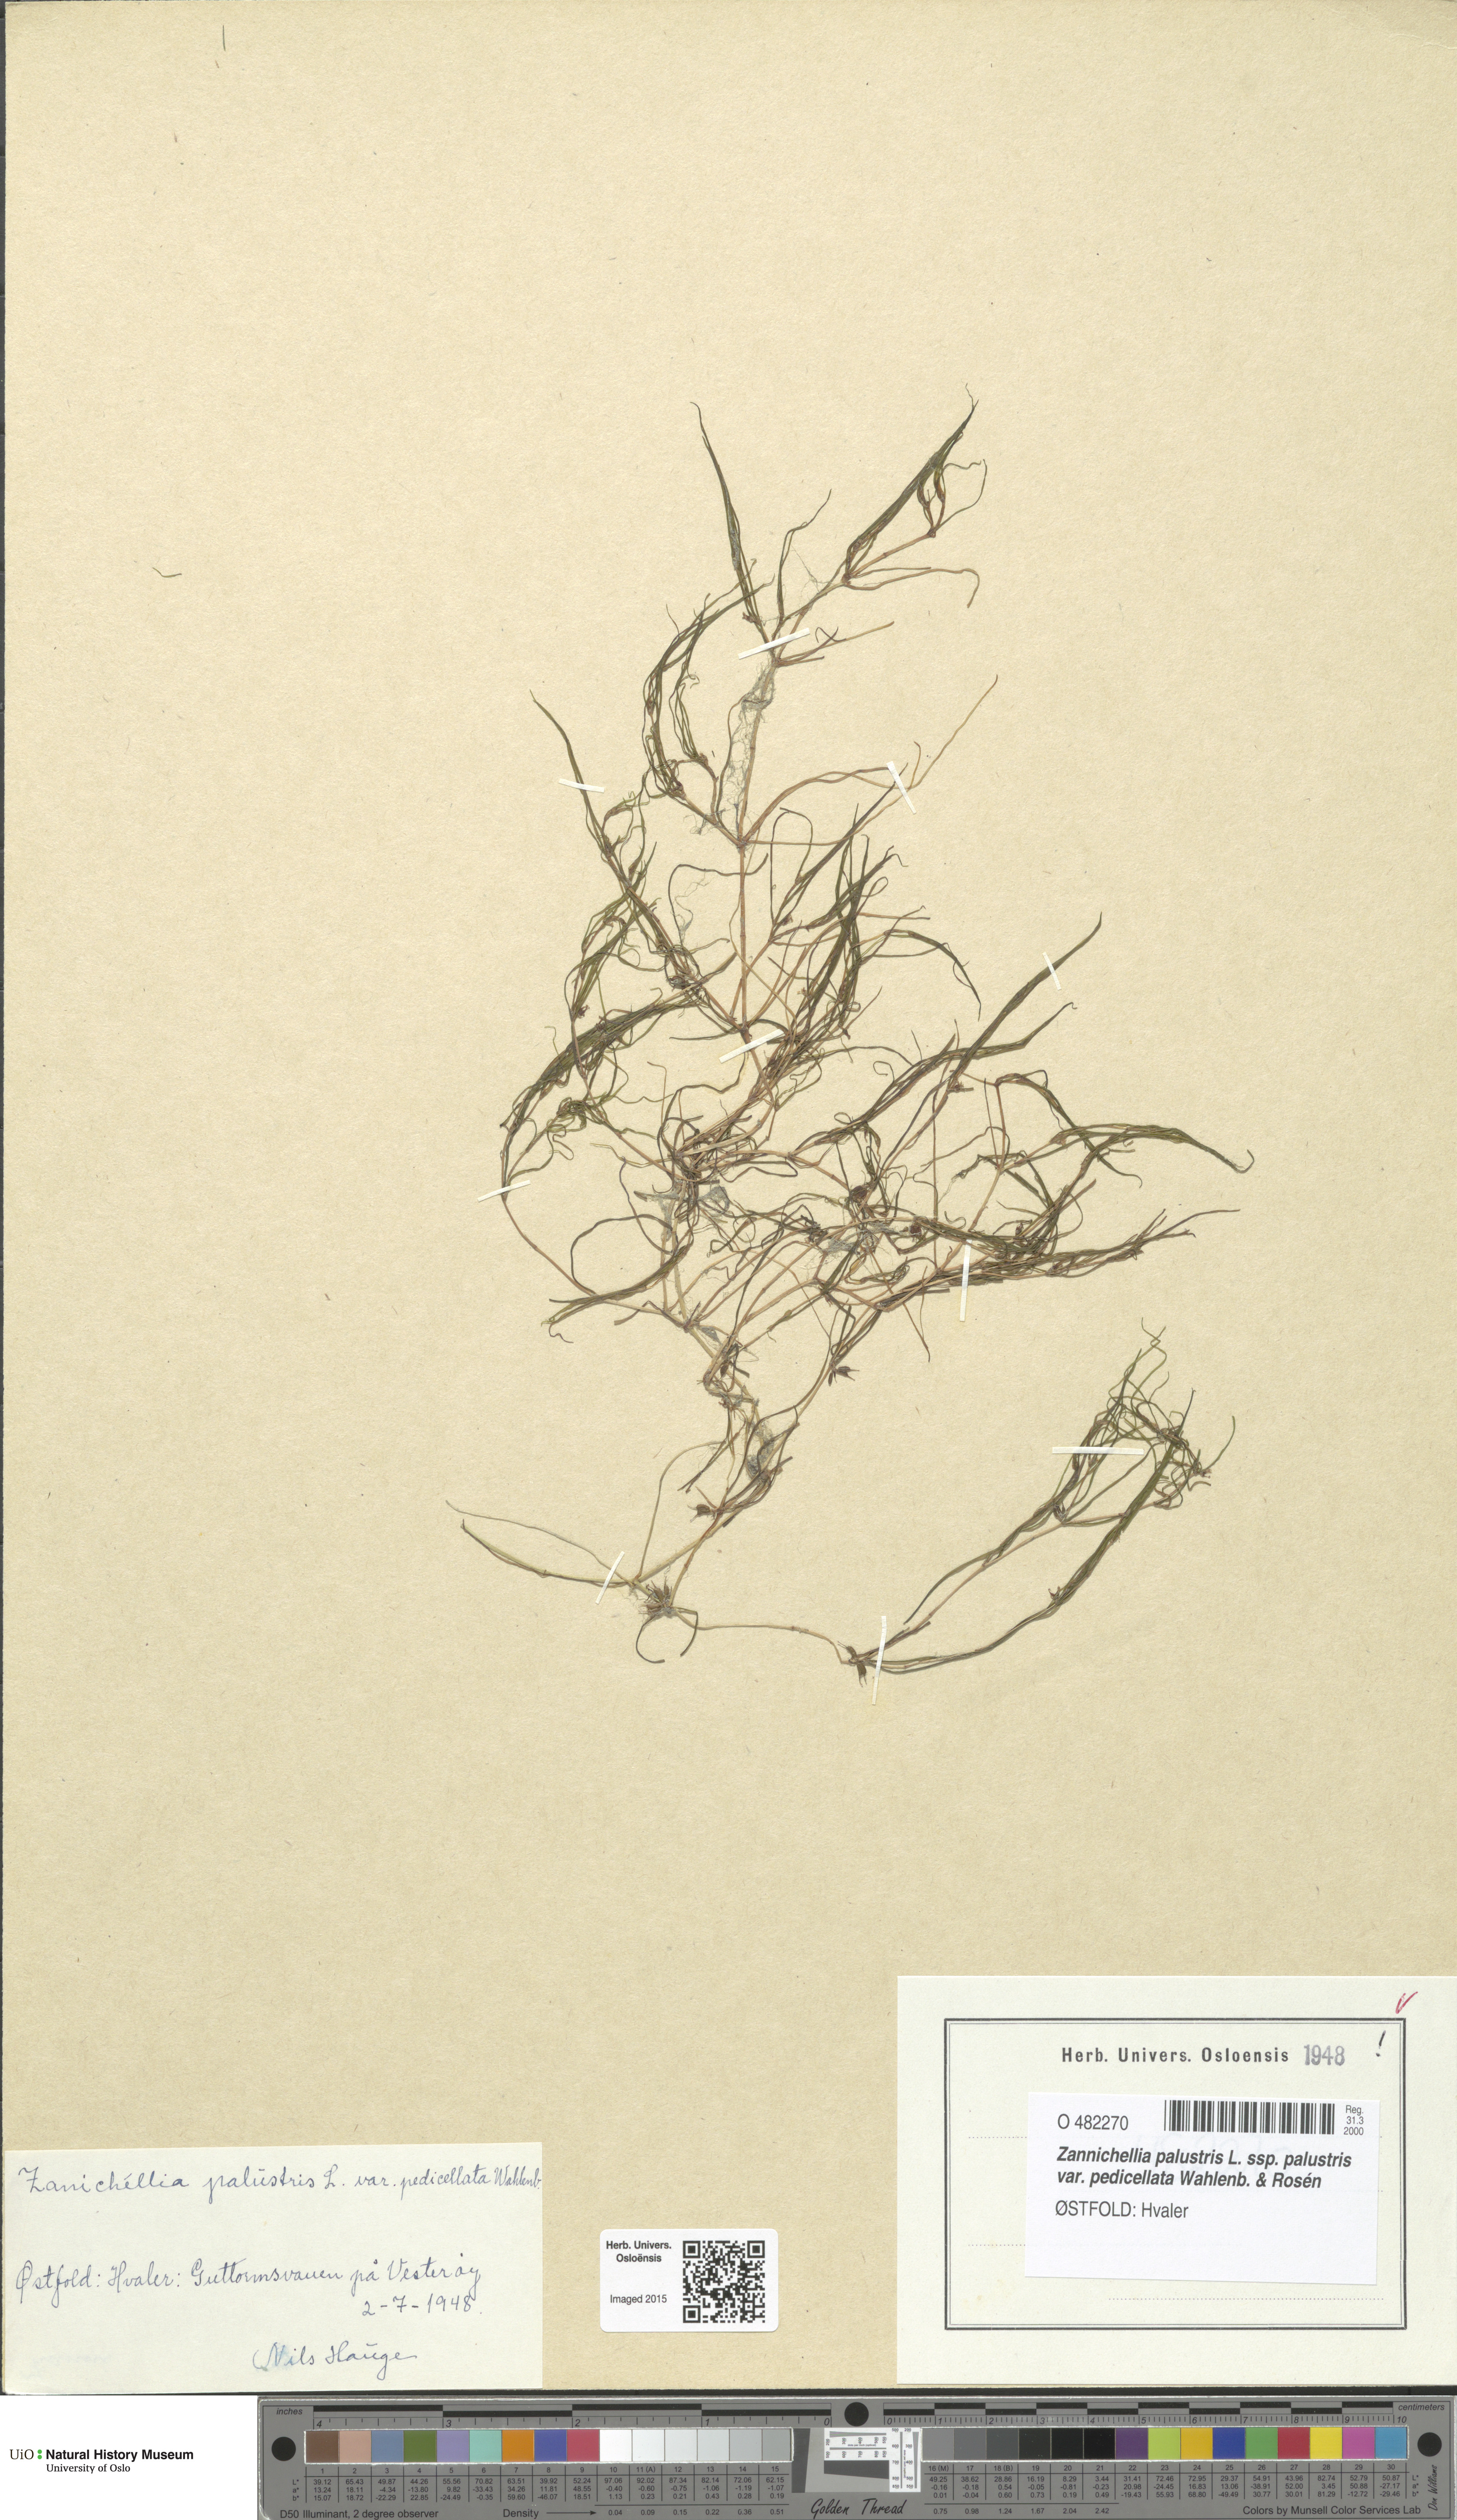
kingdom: Plantae
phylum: Tracheophyta
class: Liliopsida
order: Alismatales
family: Potamogetonaceae
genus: Zannichellia
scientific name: Zannichellia palustris
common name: Horned pondweed
